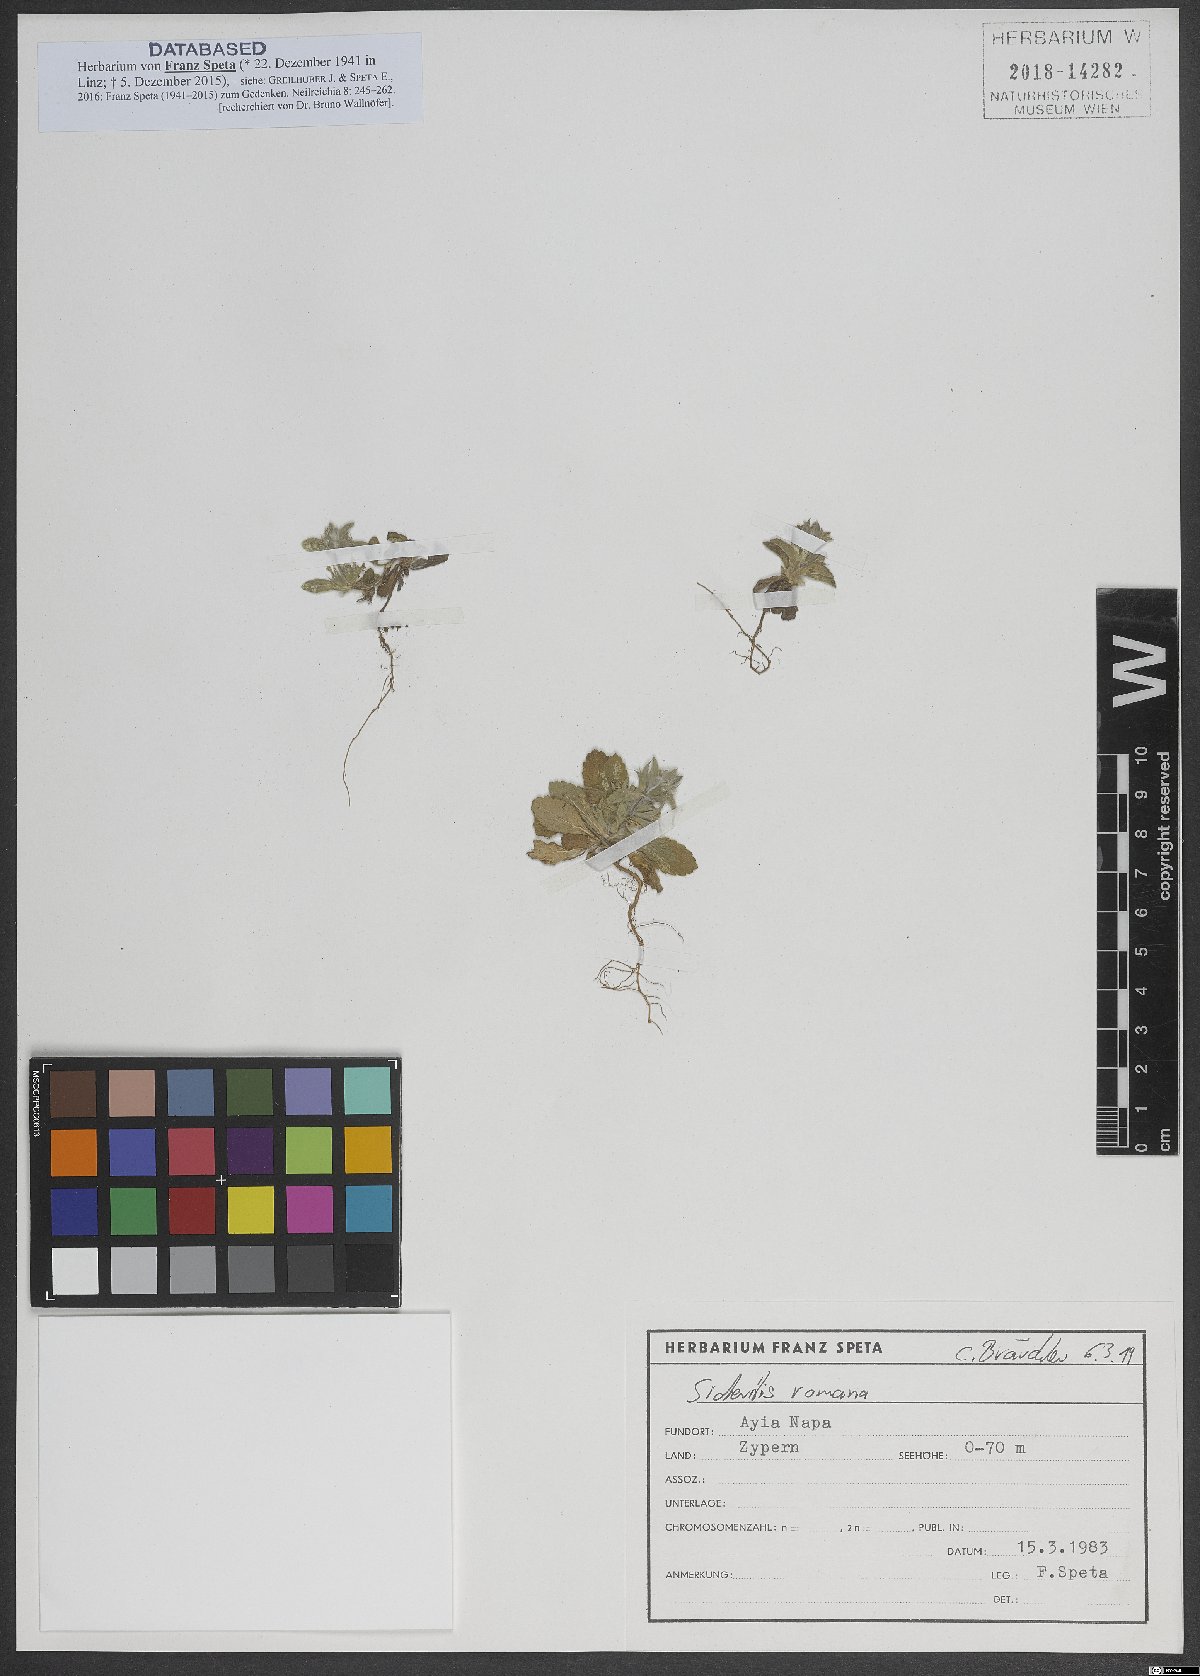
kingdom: Plantae
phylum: Tracheophyta
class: Magnoliopsida
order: Lamiales
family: Lamiaceae
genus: Sideritis
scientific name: Sideritis romana
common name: Simplebeak ironwort
